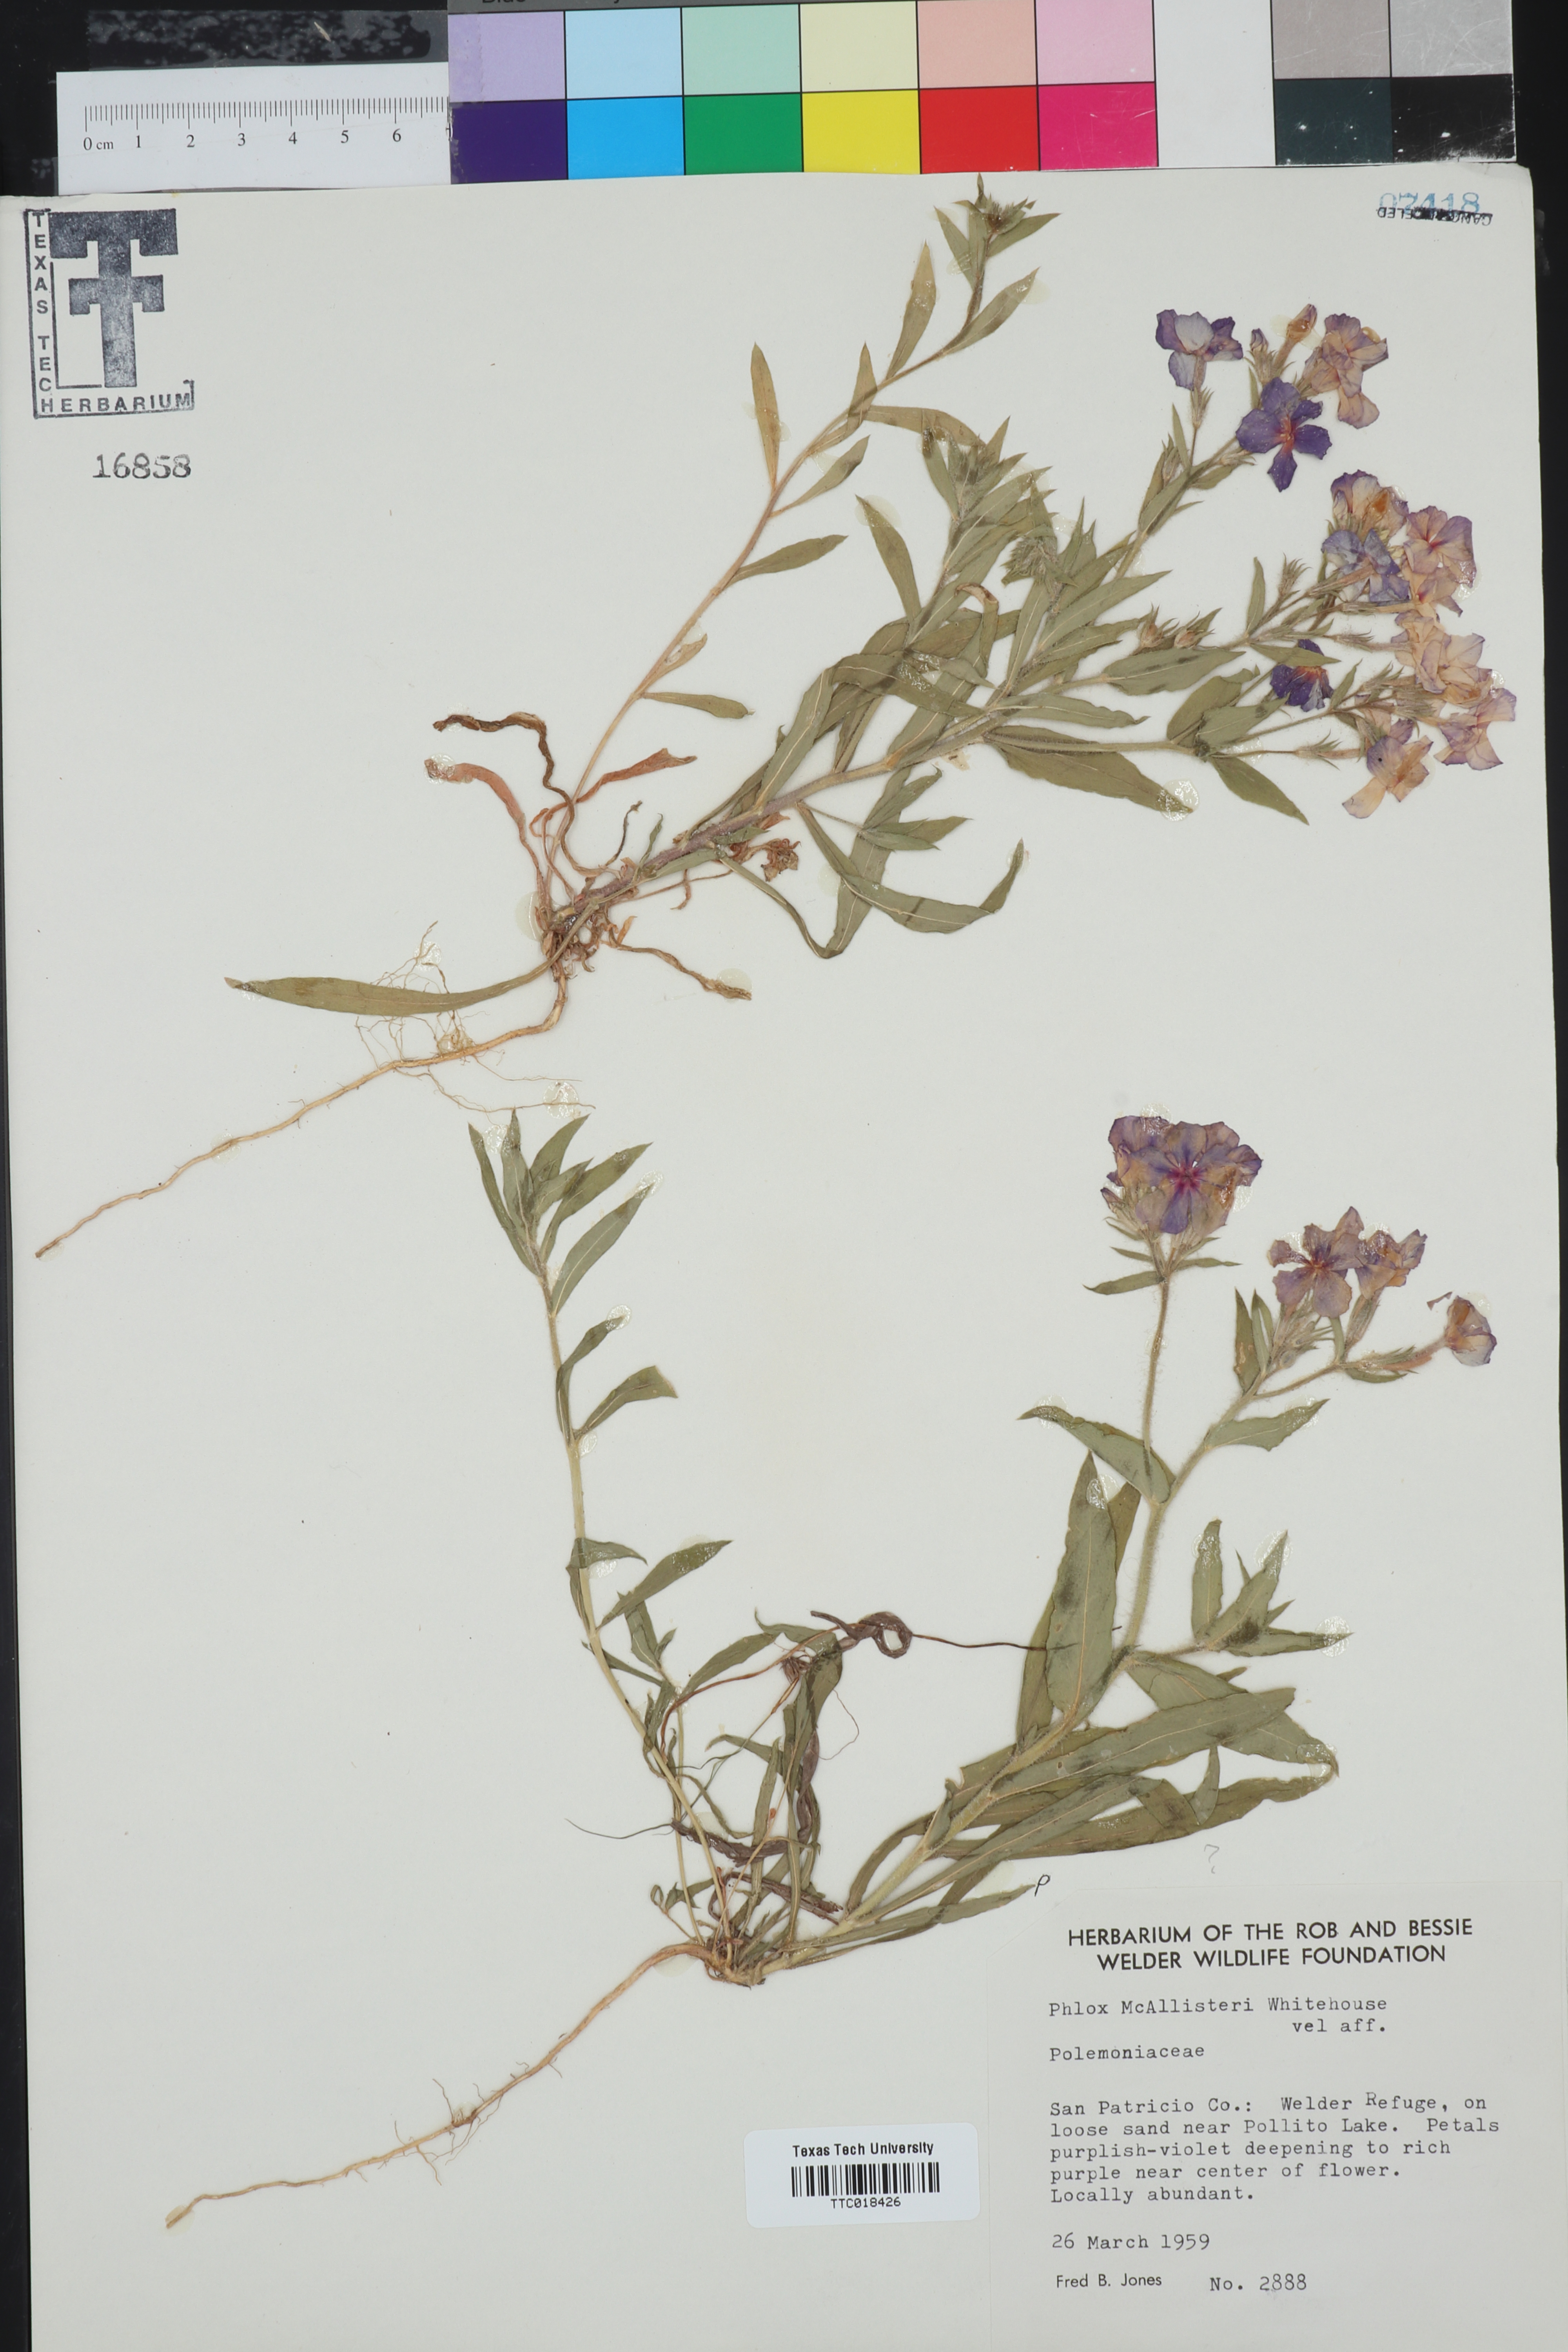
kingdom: Plantae
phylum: Tracheophyta
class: Magnoliopsida
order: Ericales
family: Polemoniaceae
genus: Phlox
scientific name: Phlox drummondii
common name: Drummond's phlox
